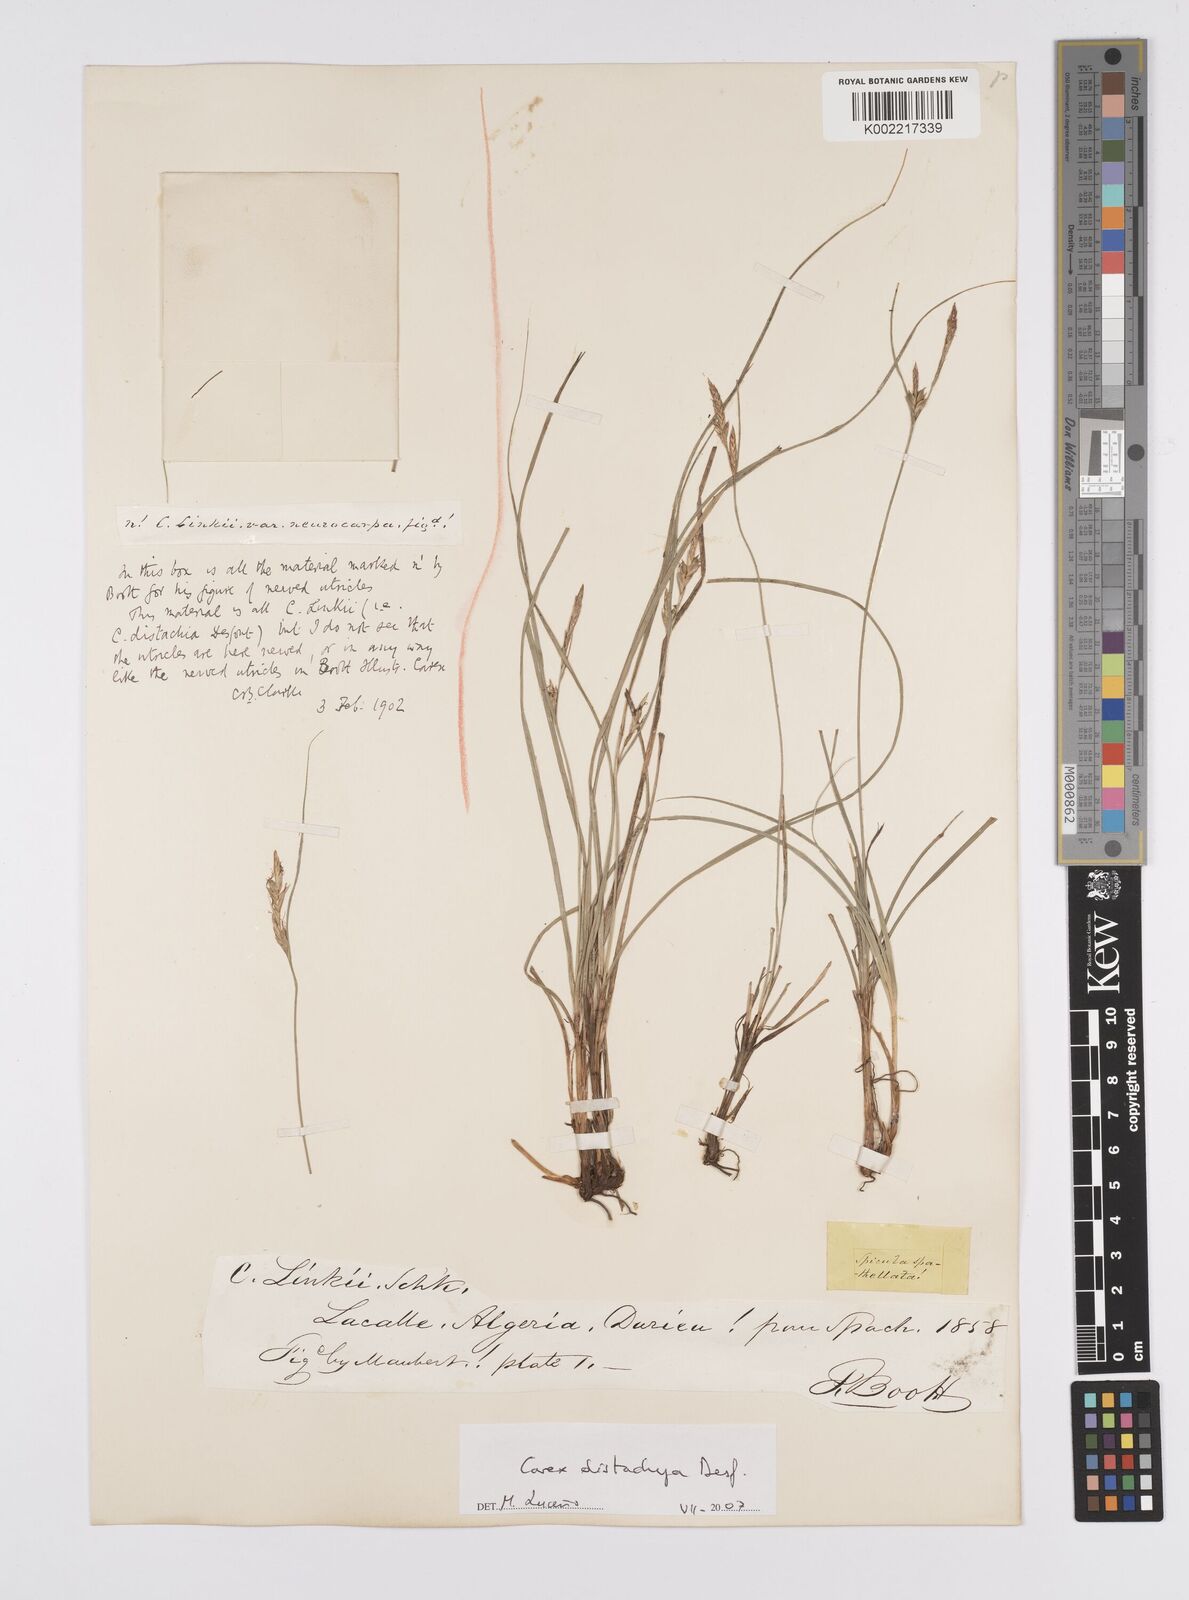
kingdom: Plantae
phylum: Tracheophyta
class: Liliopsida
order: Poales
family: Cyperaceae
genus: Carex
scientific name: Carex distachya
